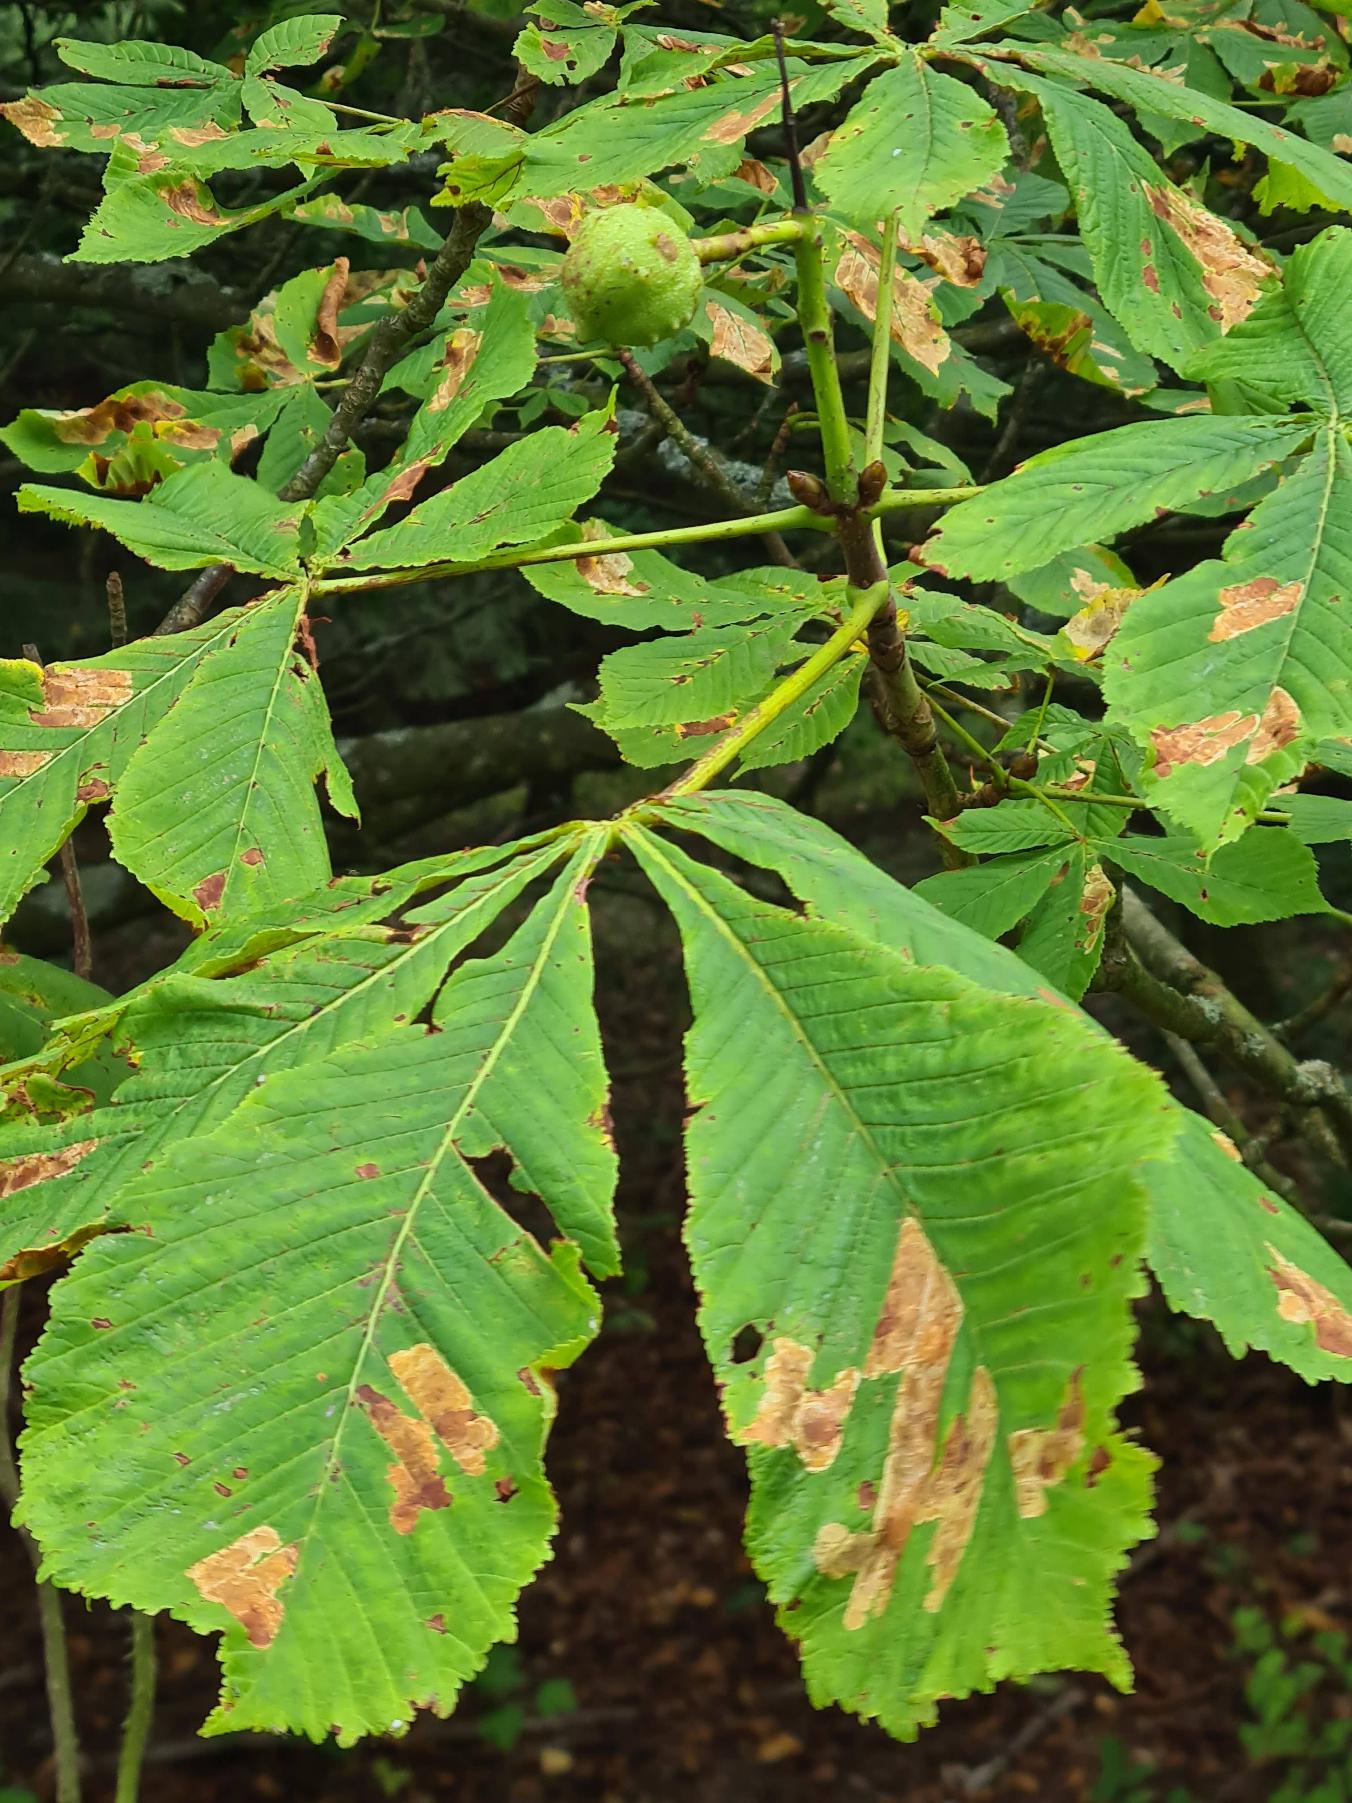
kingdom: Plantae
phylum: Tracheophyta
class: Magnoliopsida
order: Sapindales
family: Sapindaceae
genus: Aesculus
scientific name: Aesculus hippocastanum
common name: Hestekastanie
